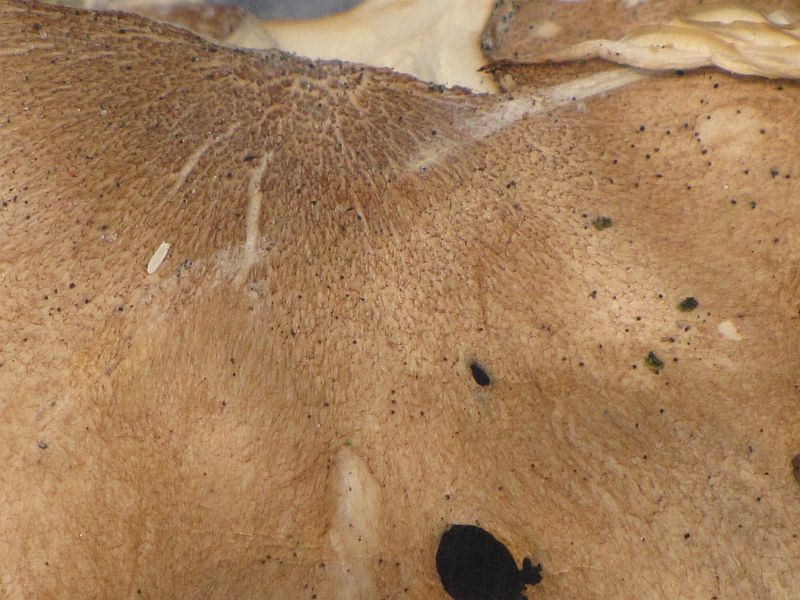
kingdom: Fungi
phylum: Basidiomycota
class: Agaricomycetes
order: Agaricales
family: Tricholomataceae
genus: Infundibulicybe
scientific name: Infundibulicybe squamulosa
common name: småskællet tragthat
